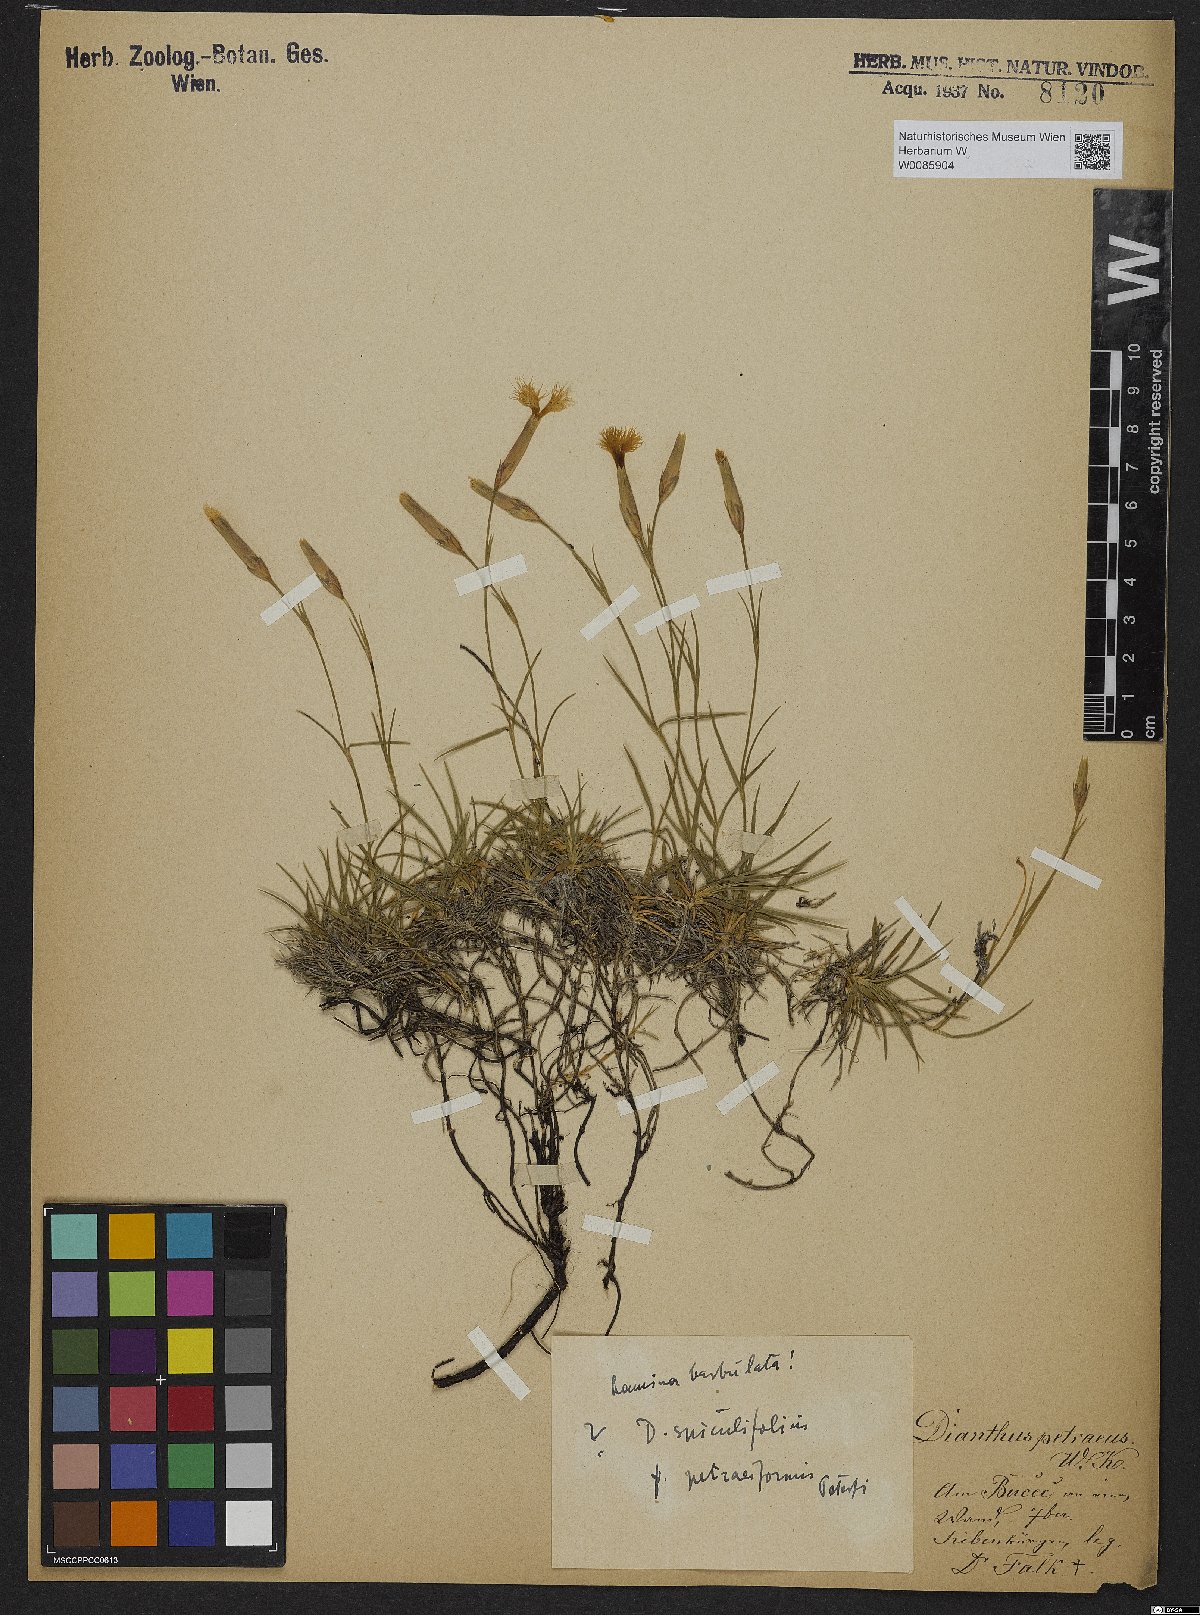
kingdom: Plantae
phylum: Tracheophyta
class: Magnoliopsida
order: Caryophyllales
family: Caryophyllaceae
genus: Dianthus
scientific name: Dianthus spiculifolius
